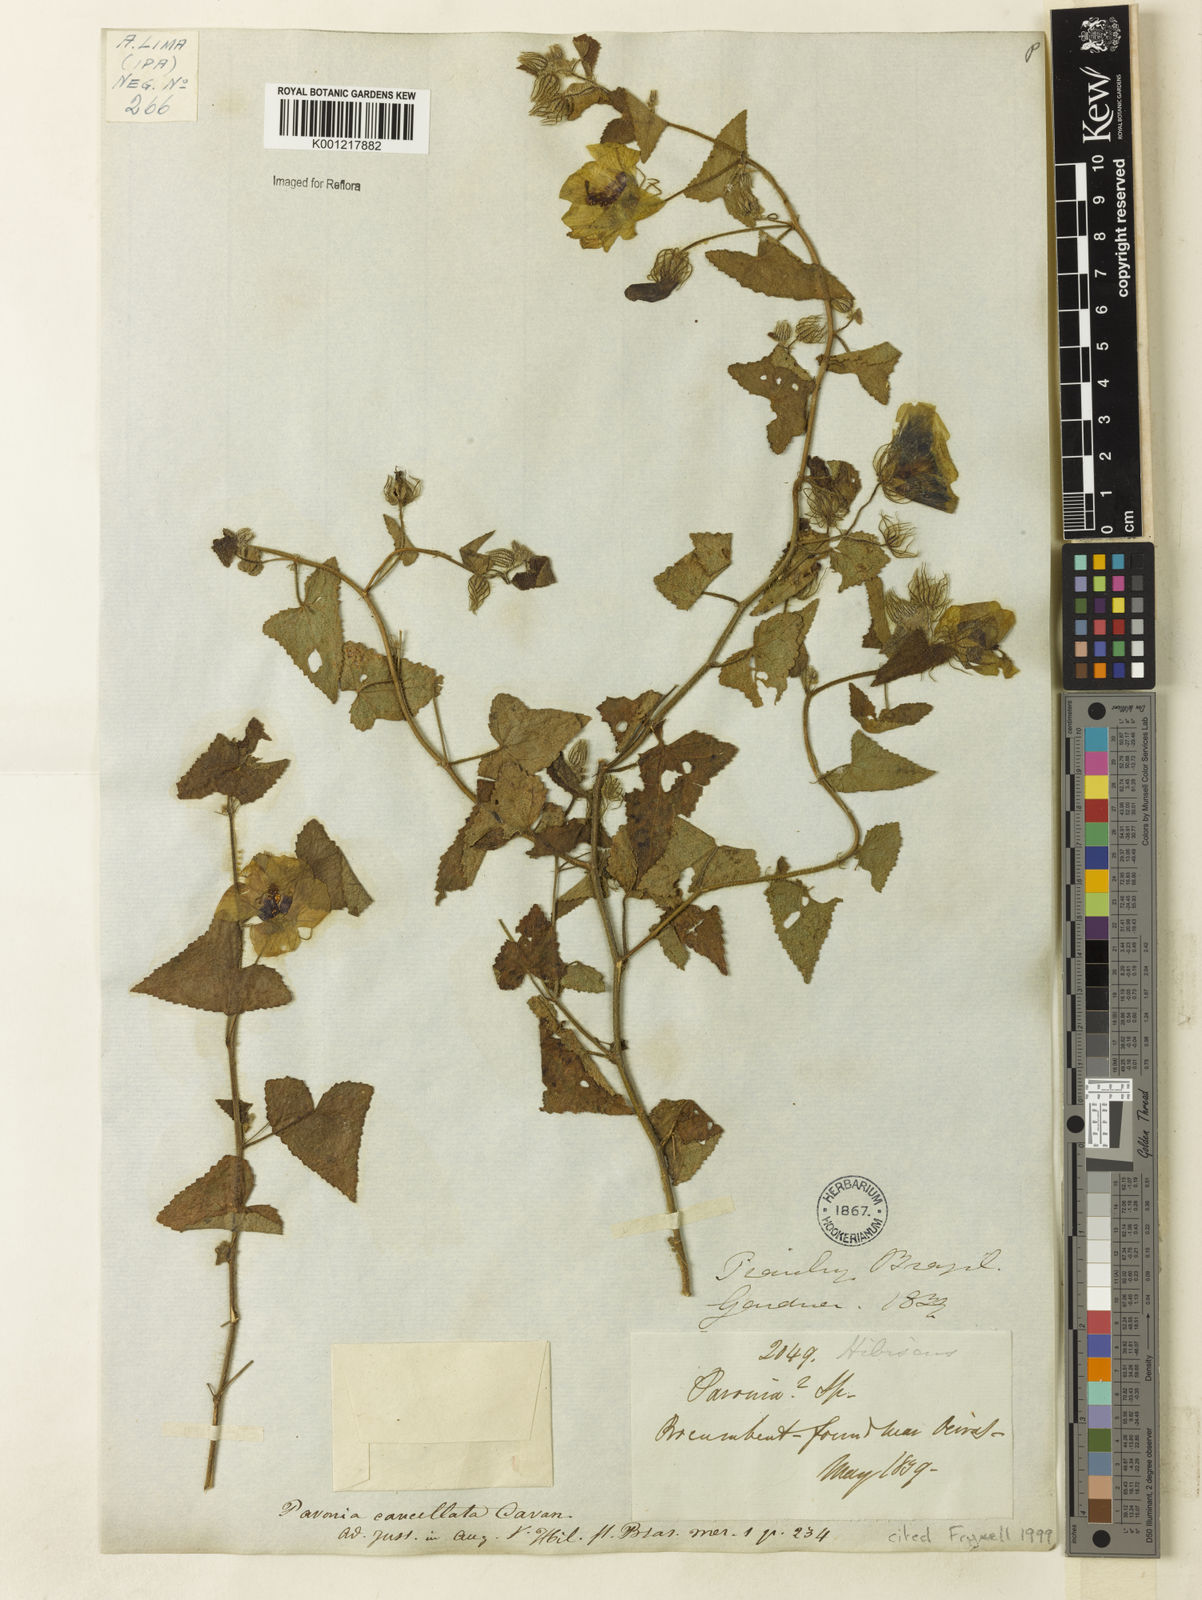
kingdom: Plantae
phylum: Tracheophyta
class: Magnoliopsida
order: Malvales
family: Malvaceae
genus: Pavonia
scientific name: Pavonia cancellata
